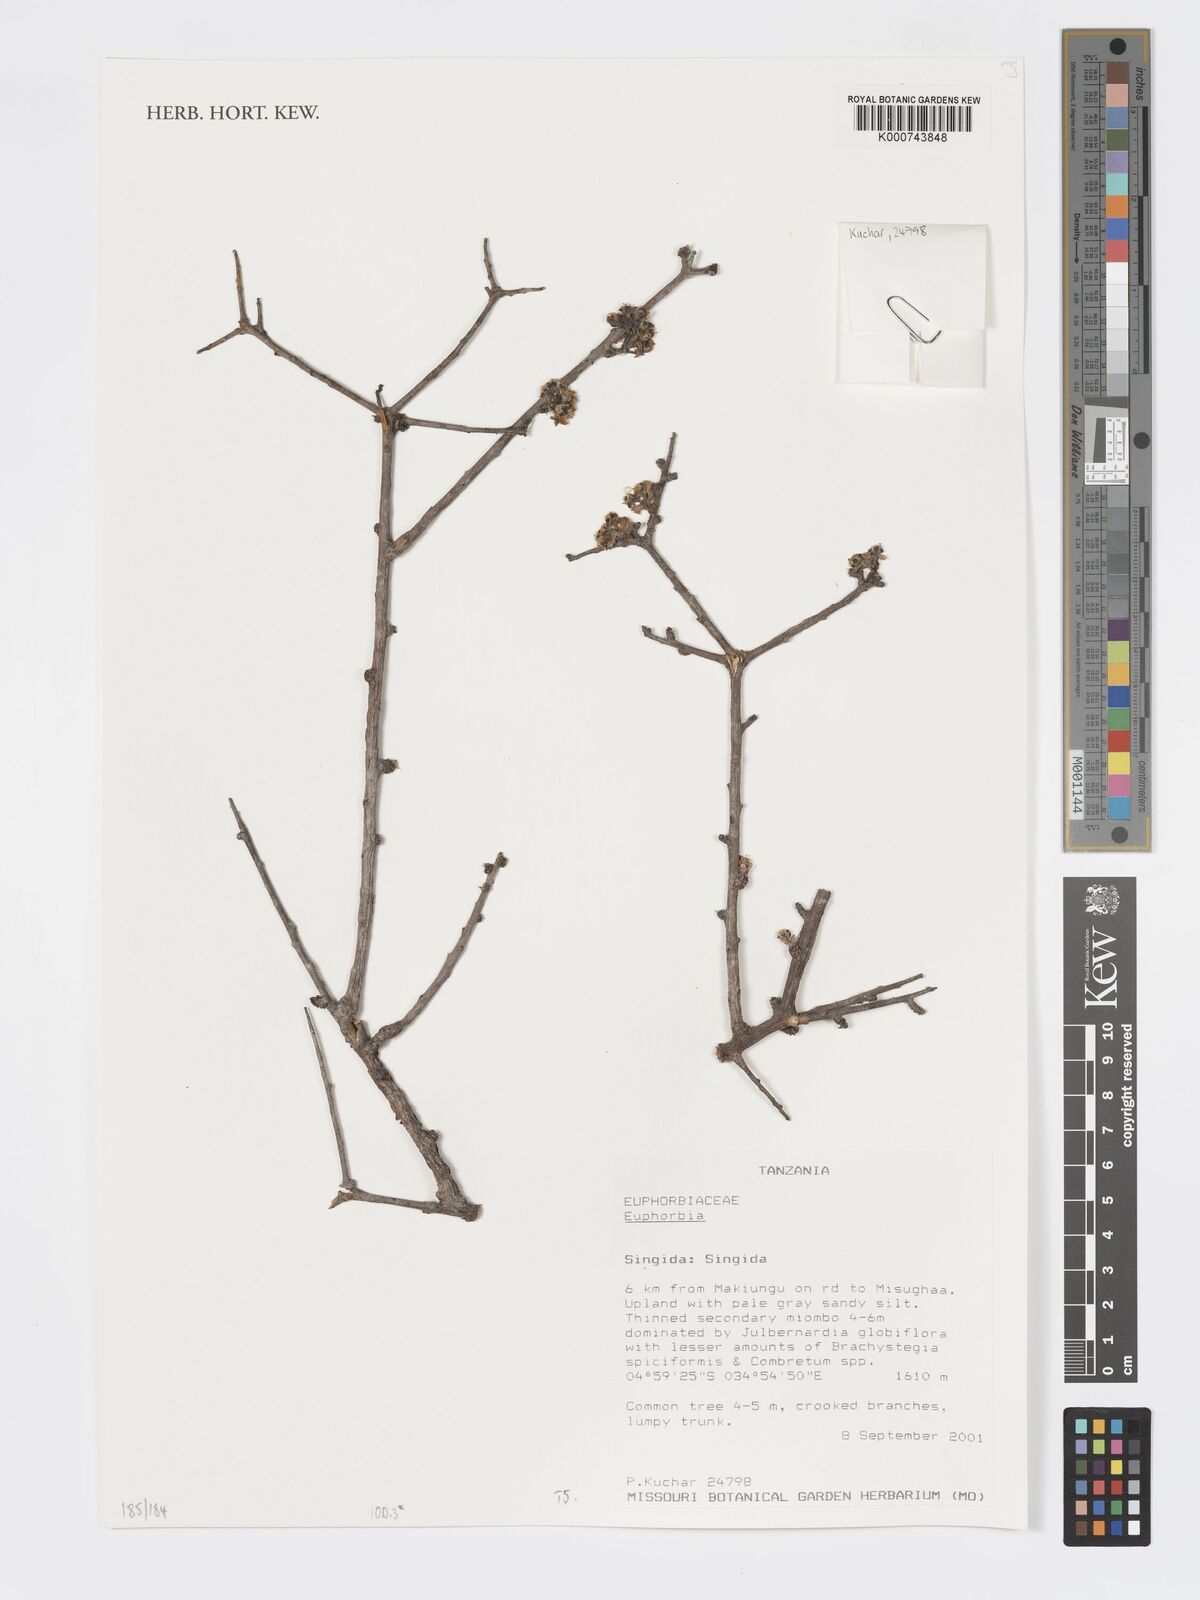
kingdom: Plantae
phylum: Tracheophyta
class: Magnoliopsida
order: Malpighiales
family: Euphorbiaceae
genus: Euphorbia
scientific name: Euphorbia
